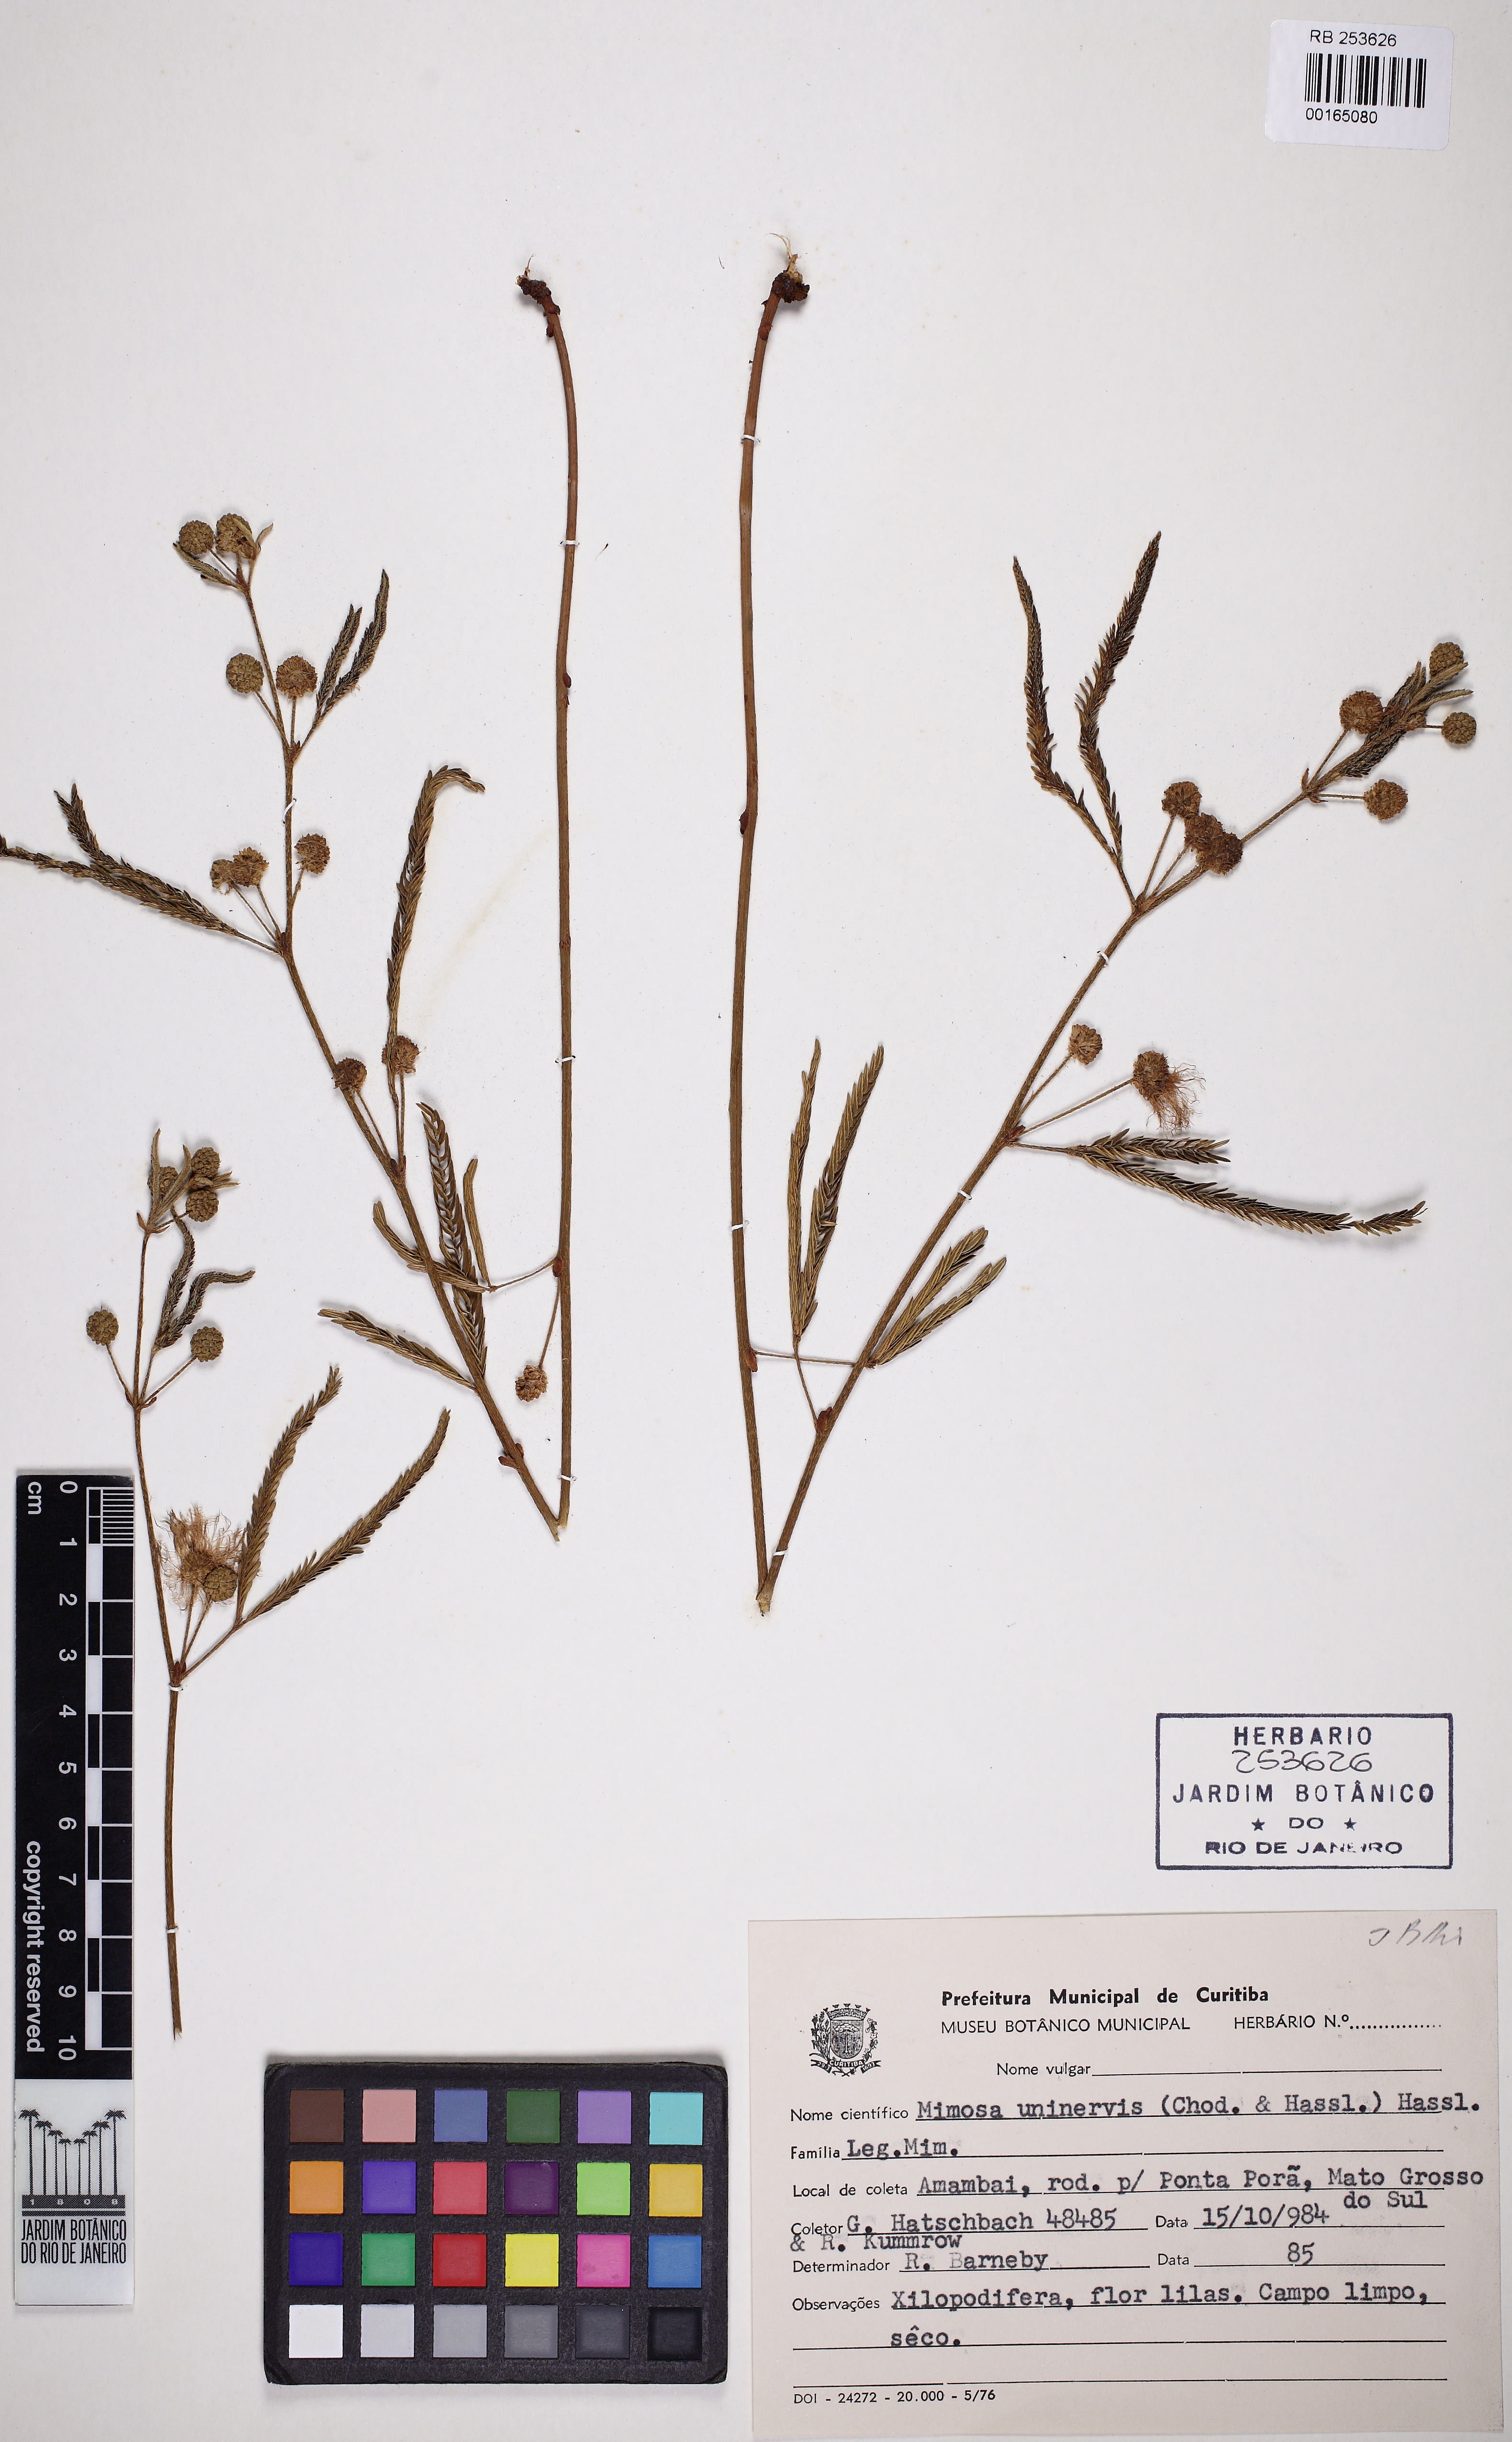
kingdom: Plantae
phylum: Tracheophyta
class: Magnoliopsida
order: Fabales
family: Fabaceae
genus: Mimosa
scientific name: Mimosa uninervis
